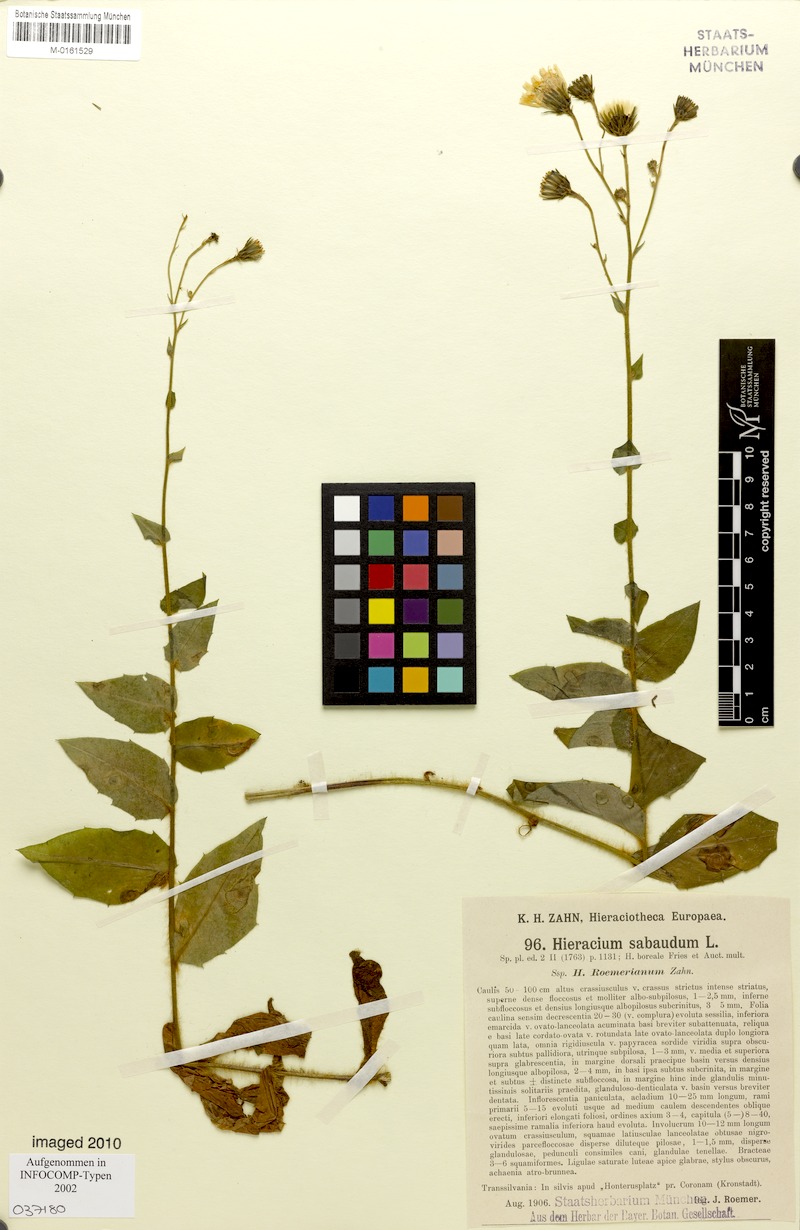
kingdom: Plantae
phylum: Tracheophyta
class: Magnoliopsida
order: Asterales
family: Asteraceae
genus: Hieracium
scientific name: Hieracium sabaudum
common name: New england hawkweed
